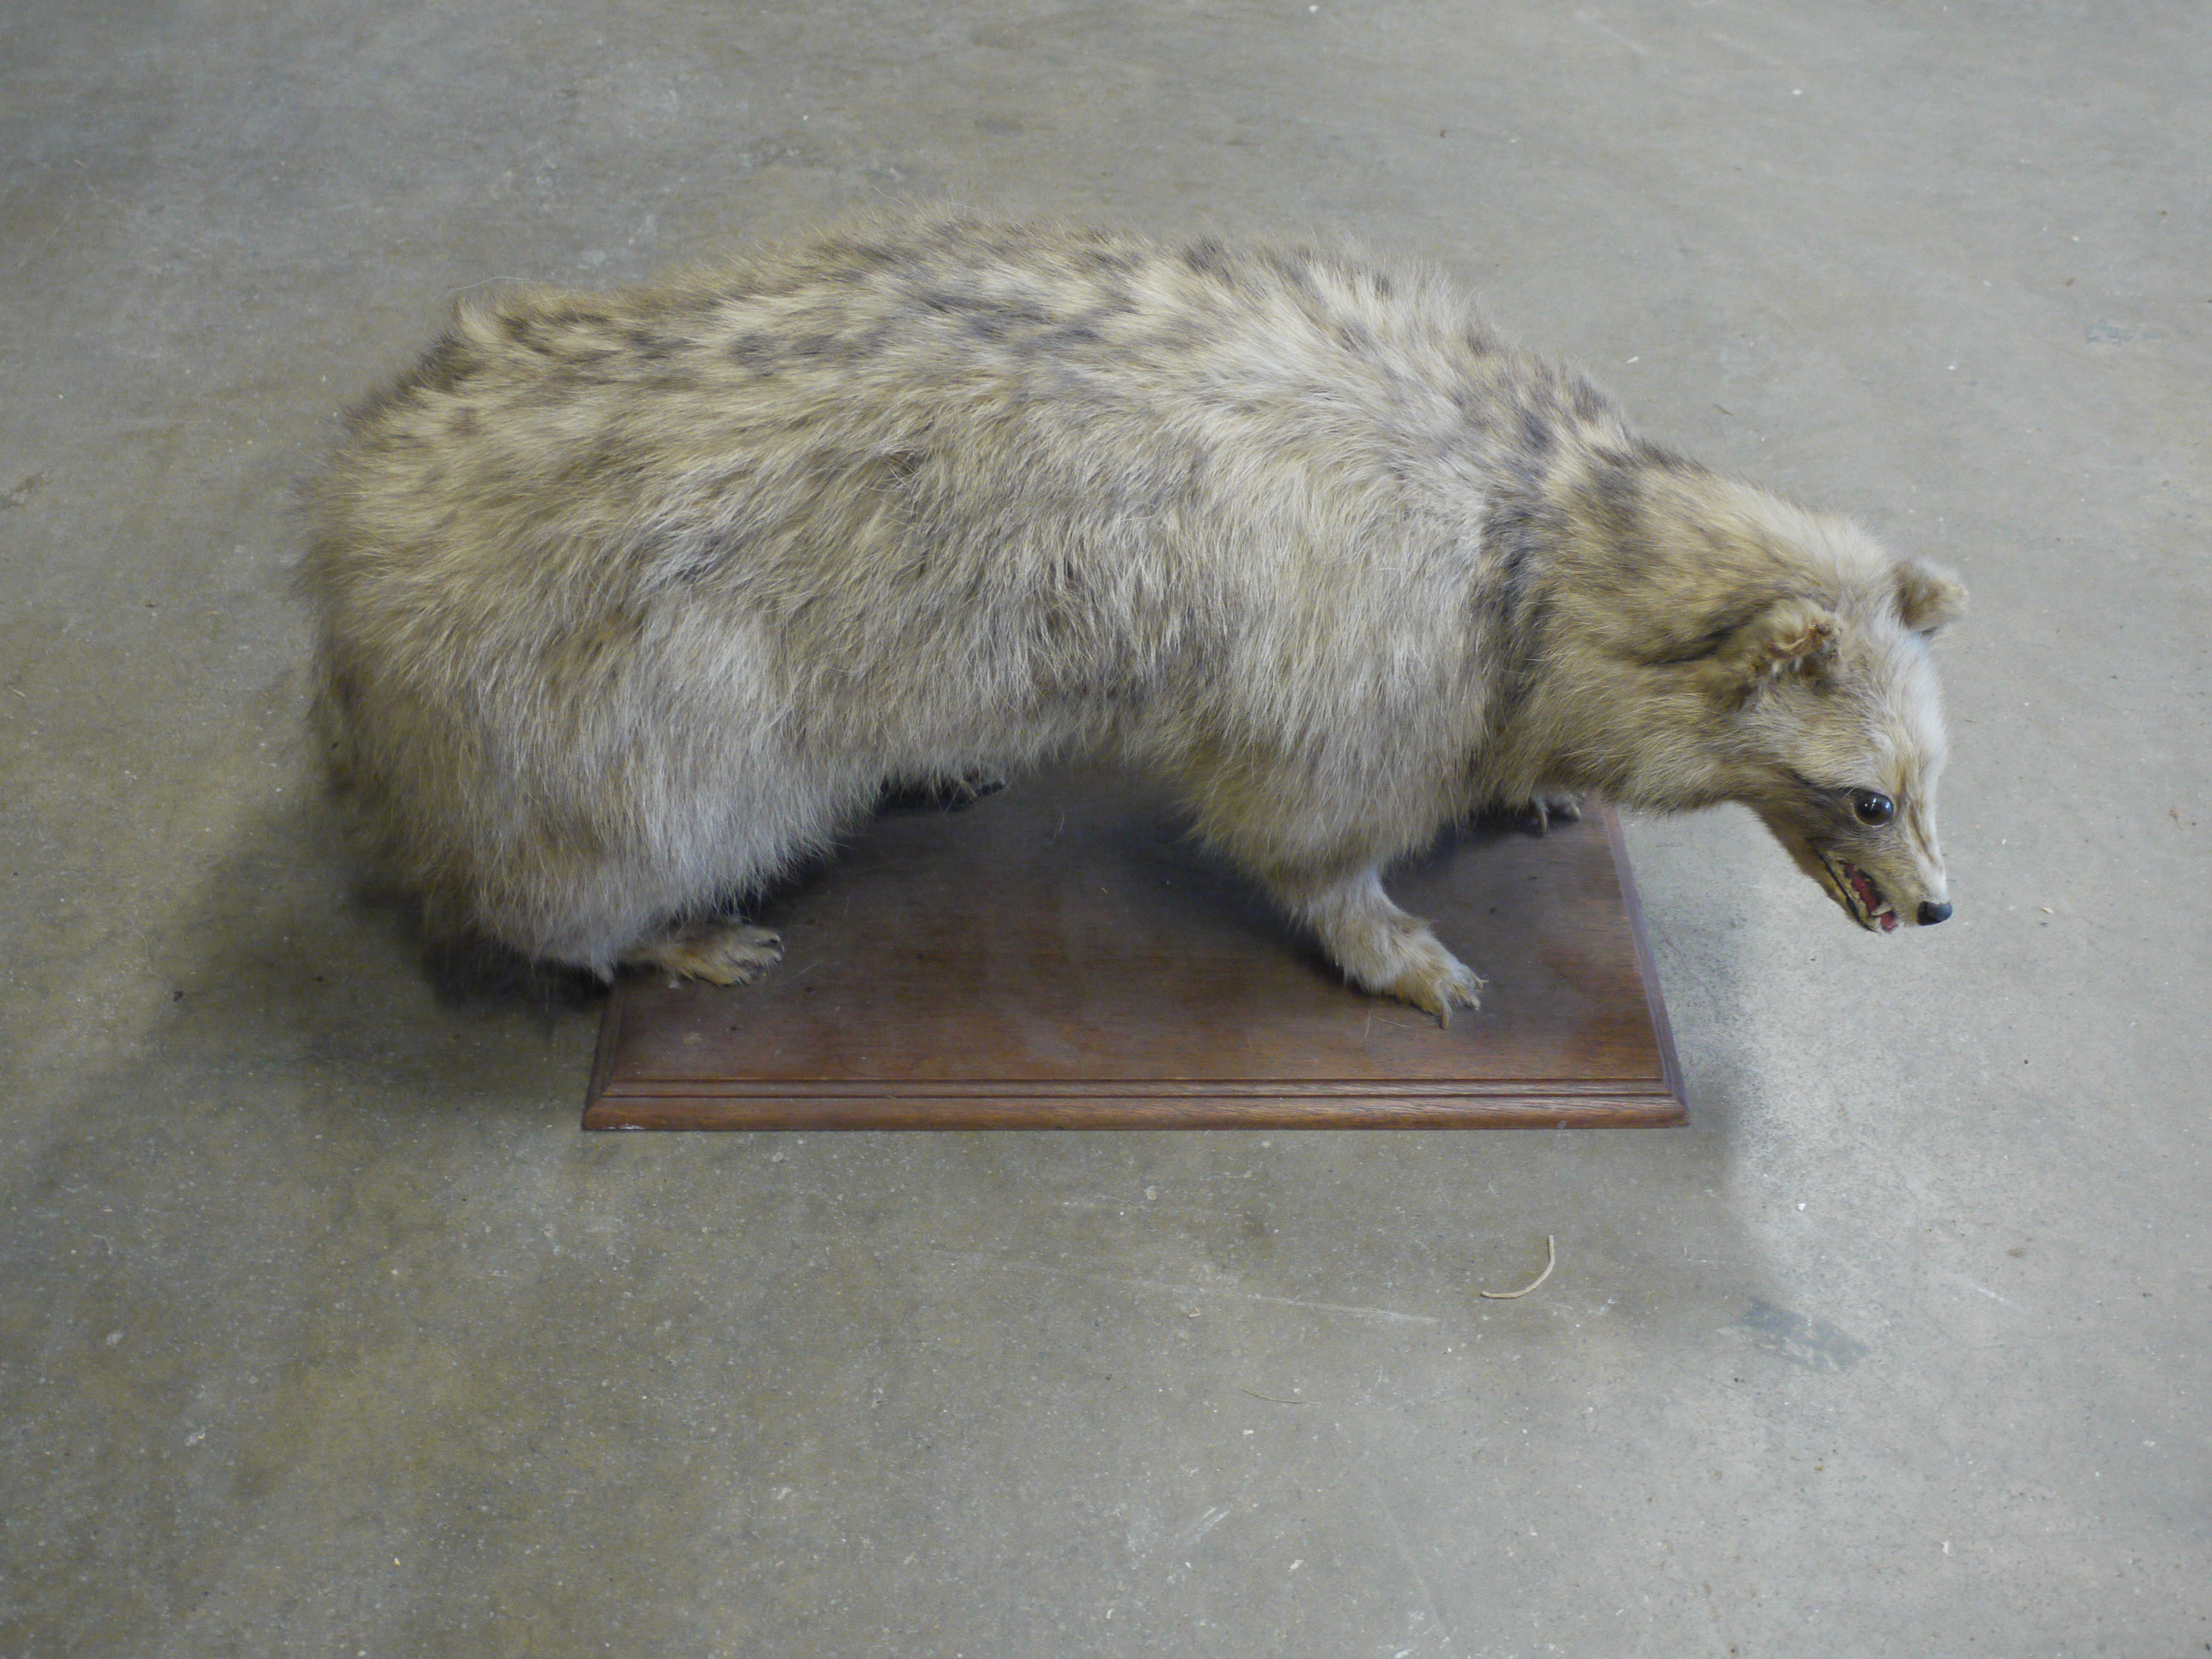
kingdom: Animalia
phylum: Chordata
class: Mammalia
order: Carnivora
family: Canidae
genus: Nyctereutes
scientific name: Nyctereutes procyonoides
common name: Raccoon dog
